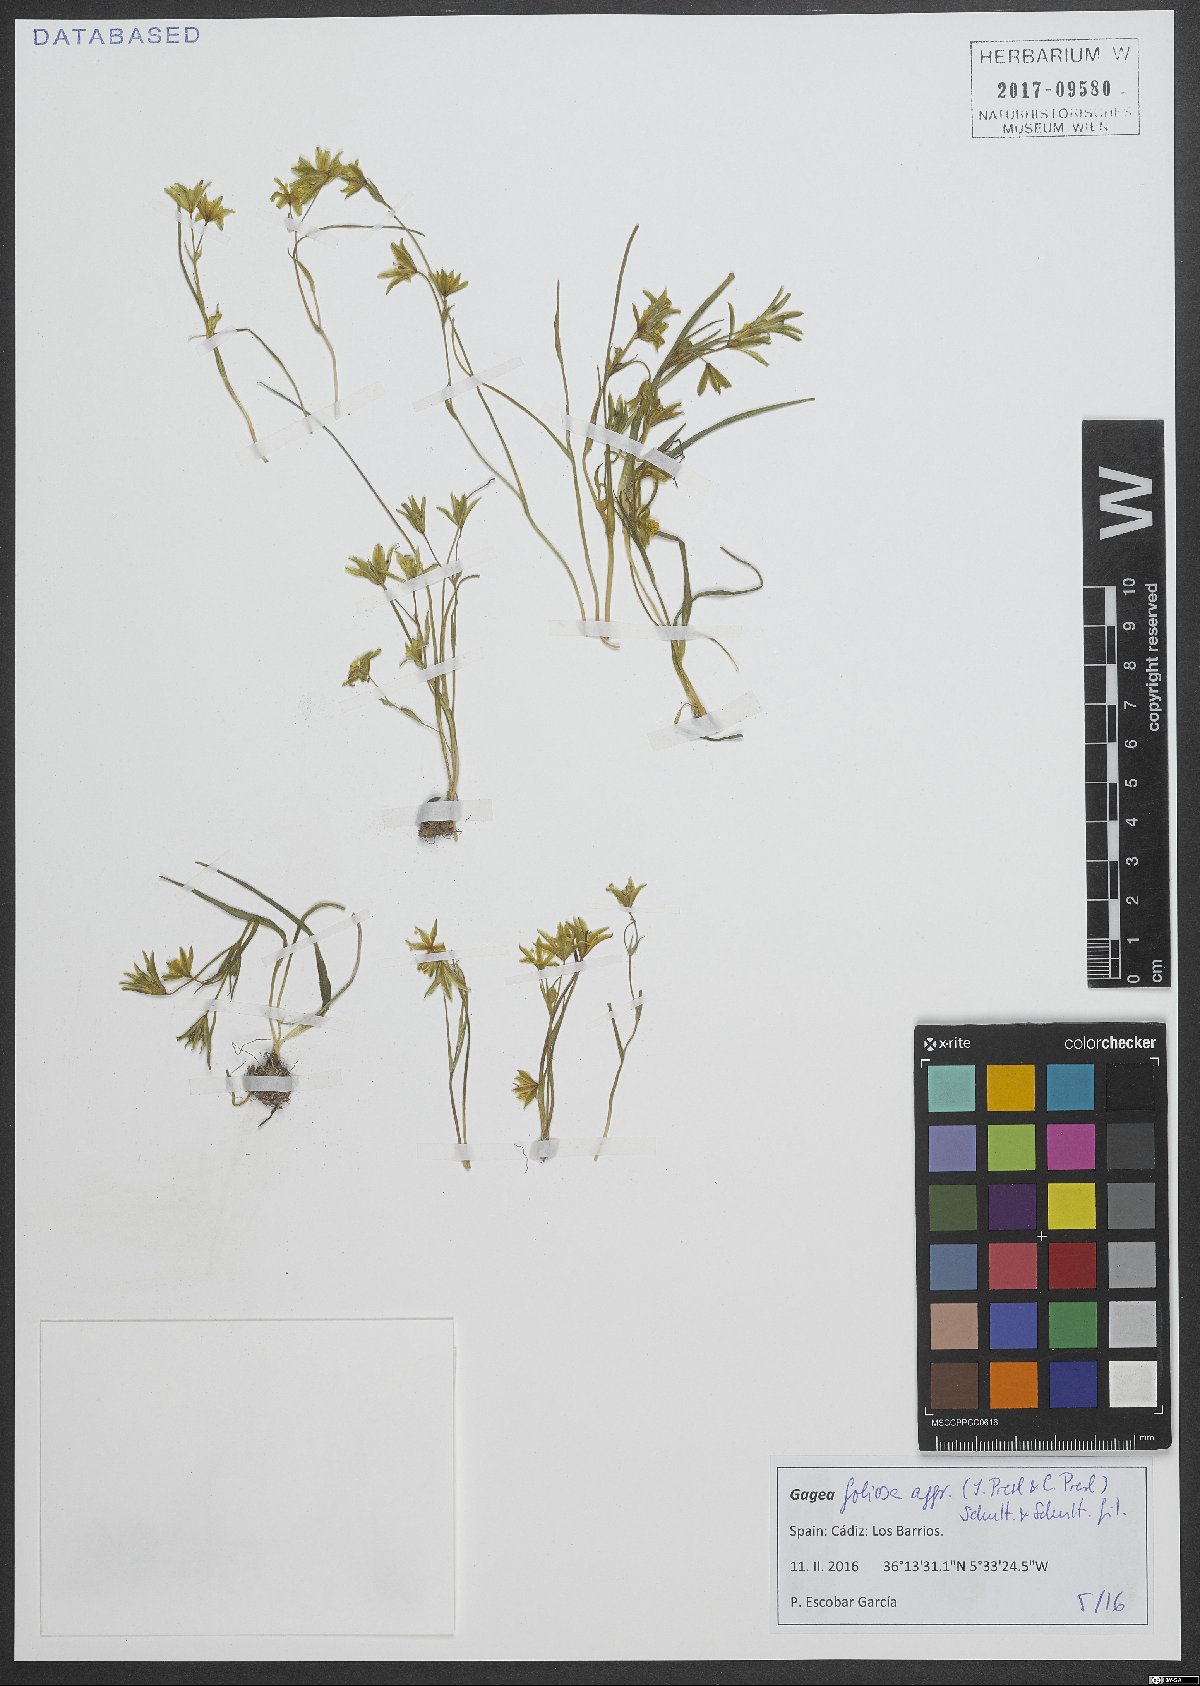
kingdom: Plantae
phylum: Tracheophyta
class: Liliopsida
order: Liliales
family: Liliaceae
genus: Gagea
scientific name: Gagea foliosa
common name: Leafy gagea
